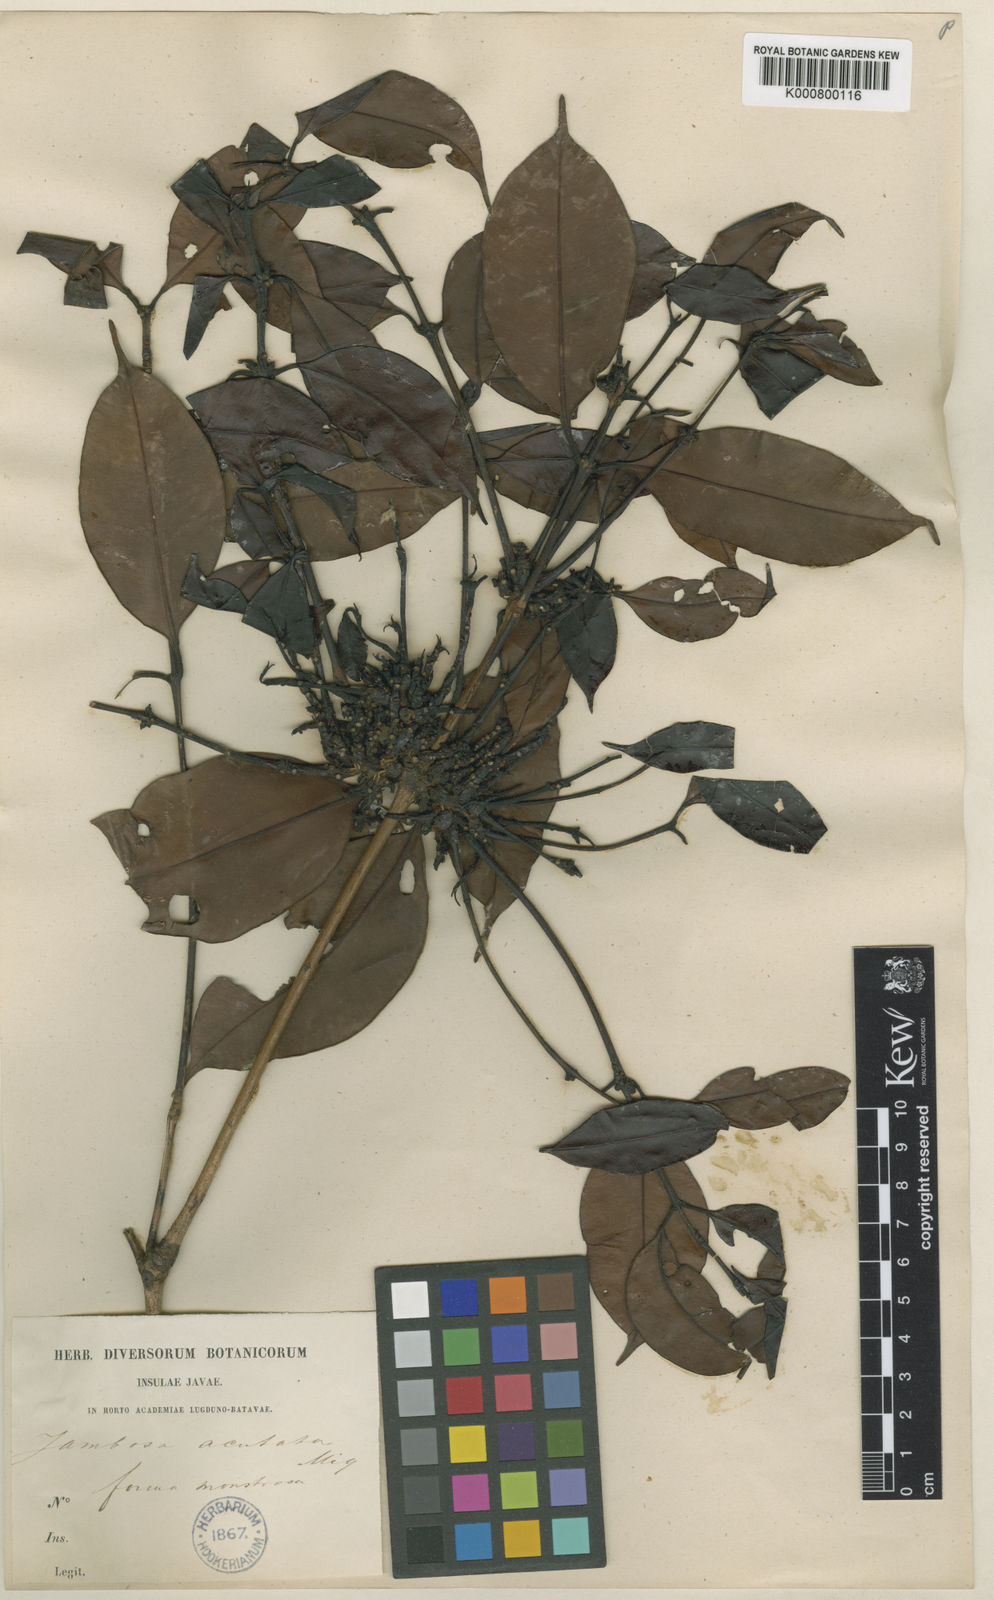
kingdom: Plantae
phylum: Tracheophyta
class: Magnoliopsida
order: Myrtales
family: Myrtaceae
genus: Syzygium
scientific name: Syzygium acutatum
